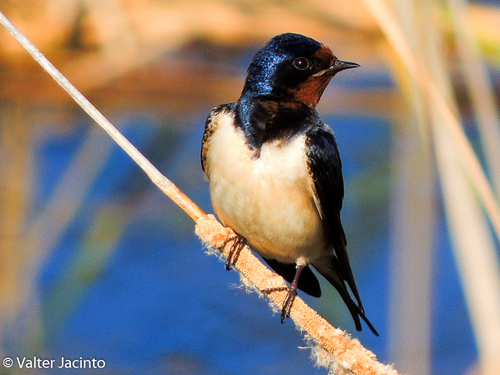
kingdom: Animalia
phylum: Chordata
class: Aves
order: Passeriformes
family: Hirundinidae
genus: Hirundo
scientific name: Hirundo rustica
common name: Barn swallow
